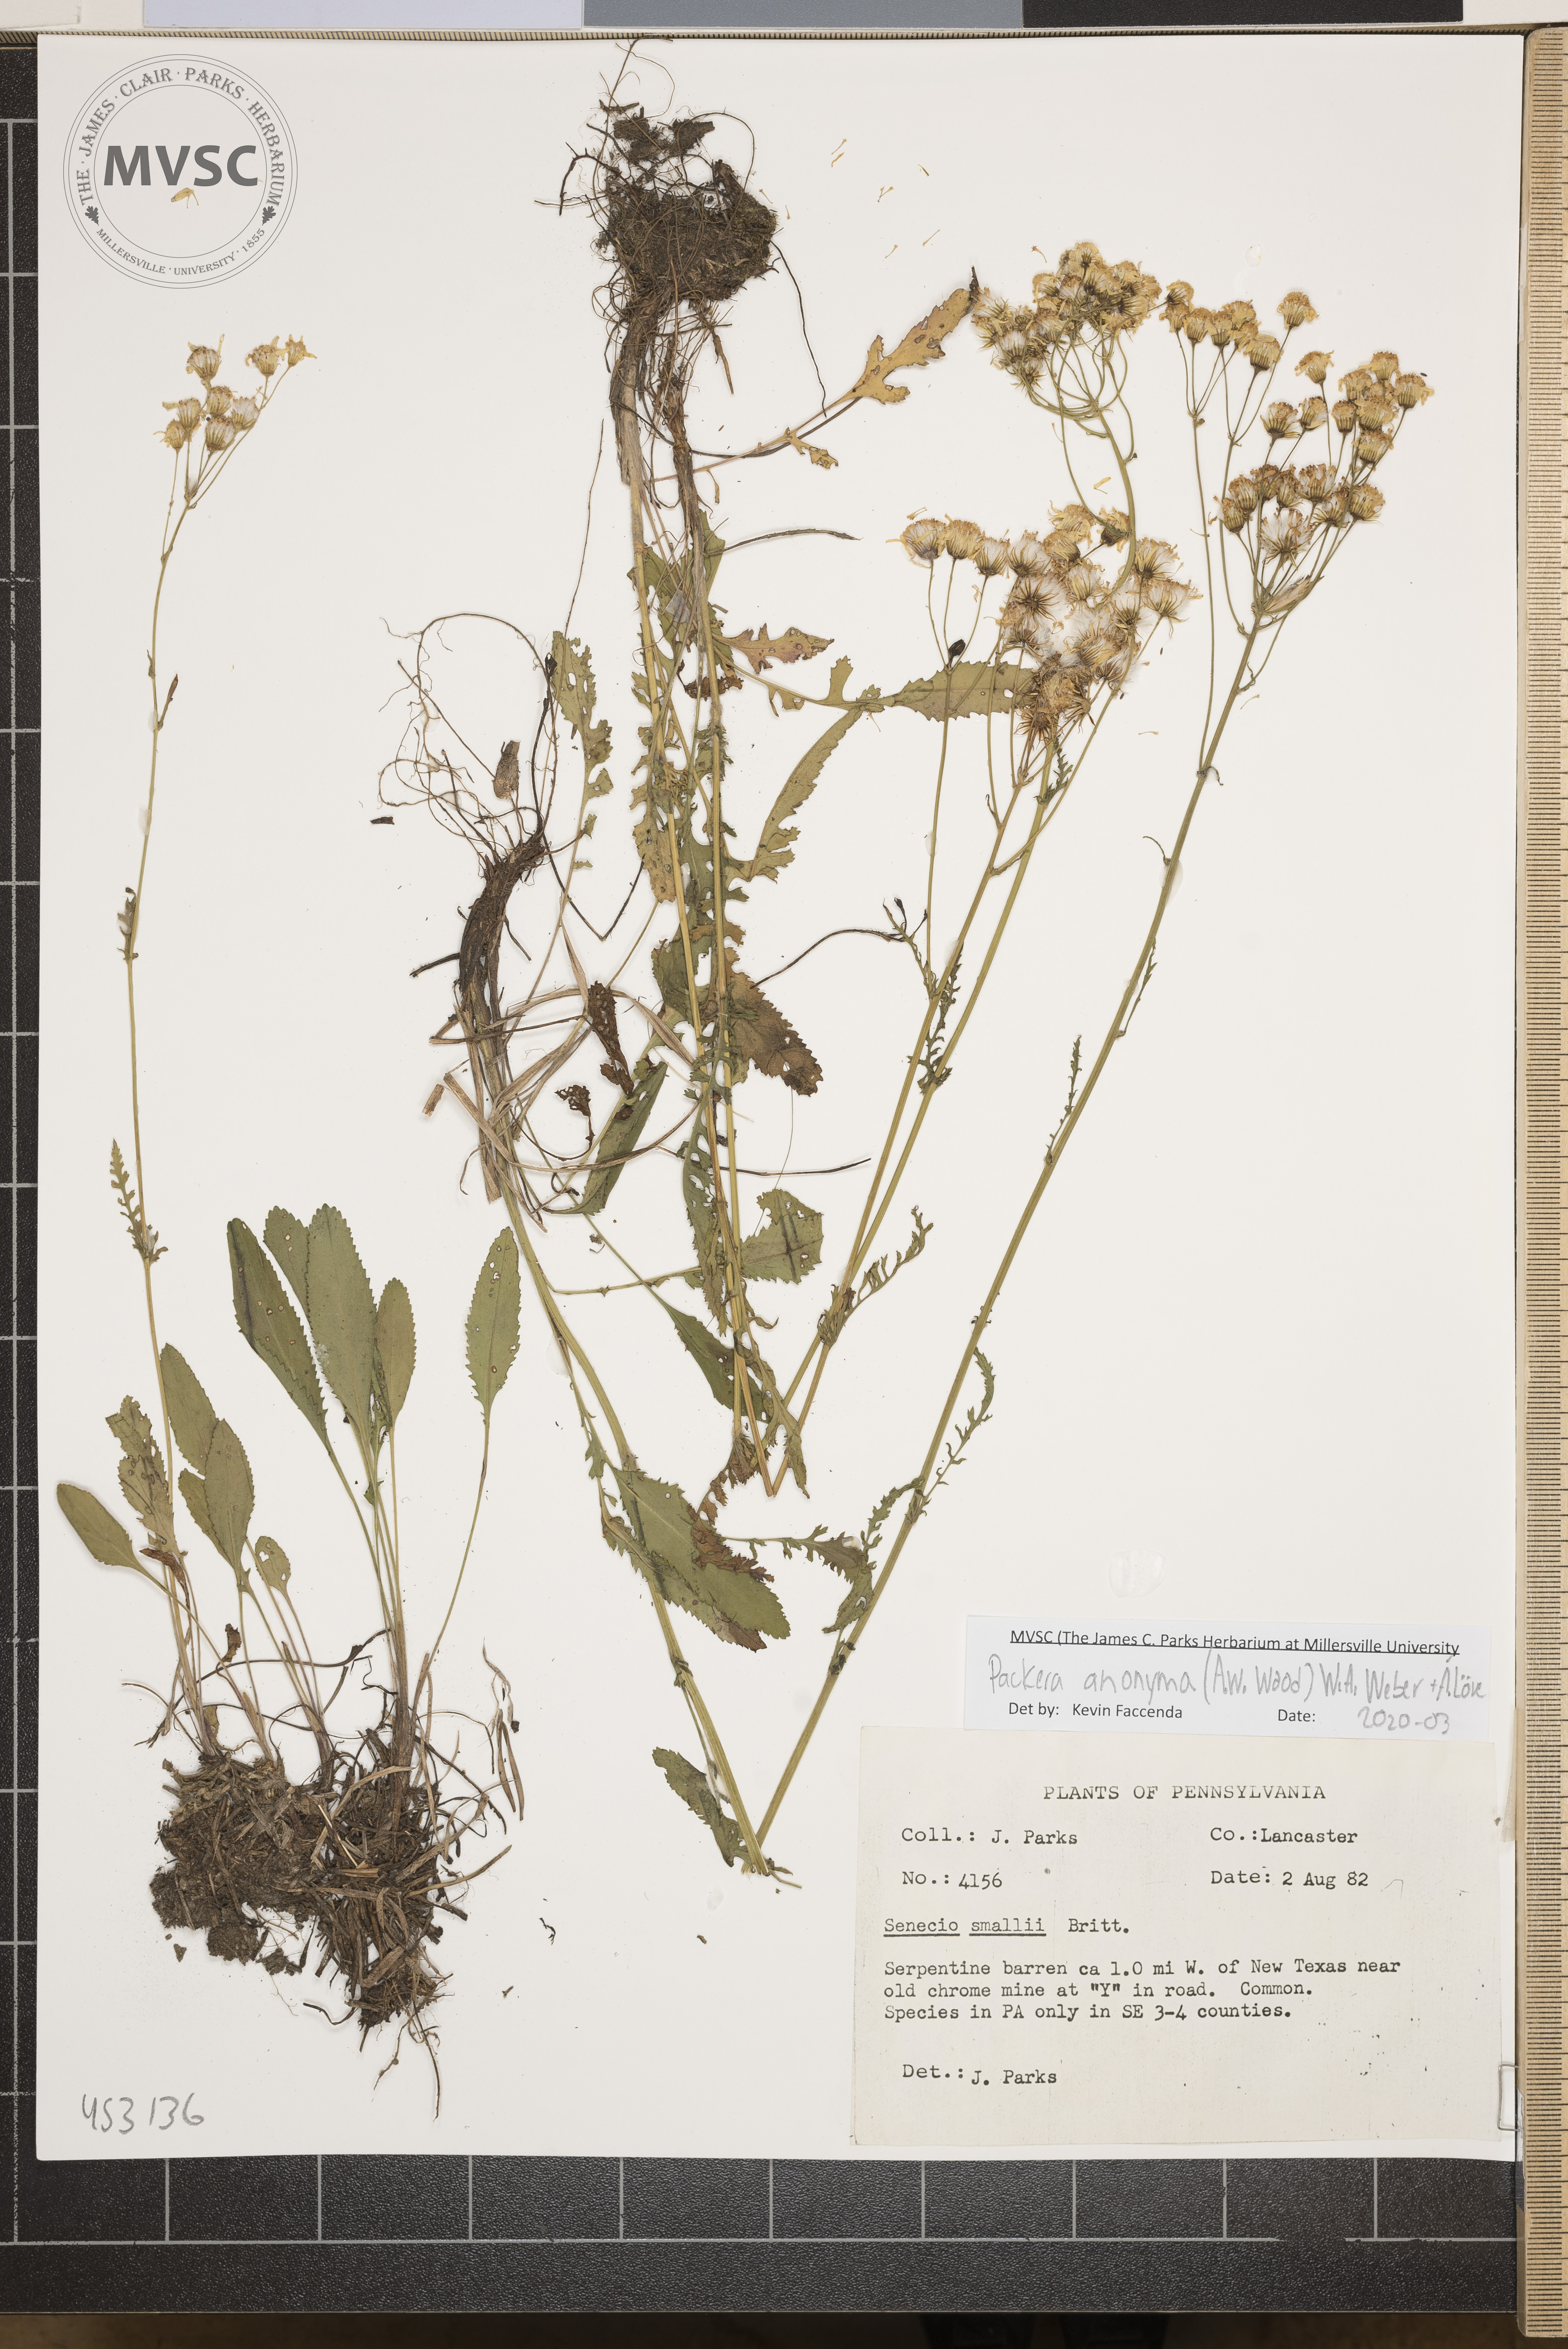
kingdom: Plantae
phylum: Tracheophyta
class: Magnoliopsida
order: Asterales
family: Asteraceae
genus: Packera
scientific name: Packera anonyma
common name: Small ragwort
